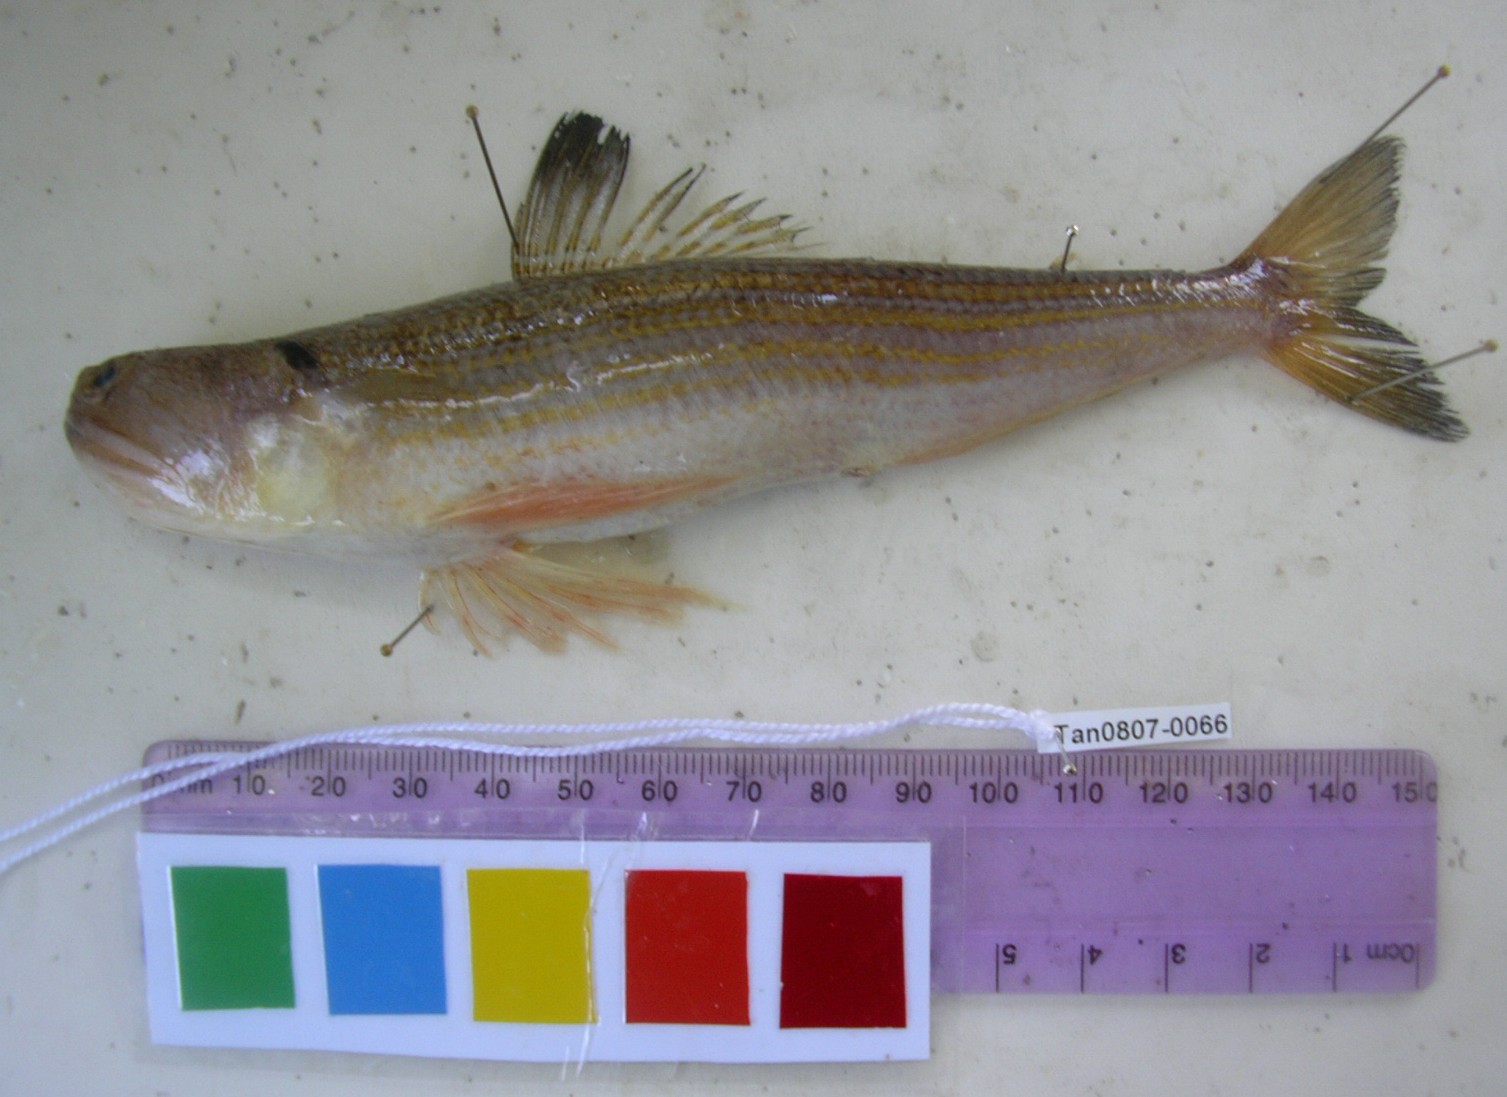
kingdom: Animalia
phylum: Chordata
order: Aulopiformes
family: Synodontidae
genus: Synodus
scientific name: Synodus myops
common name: Snakefish
